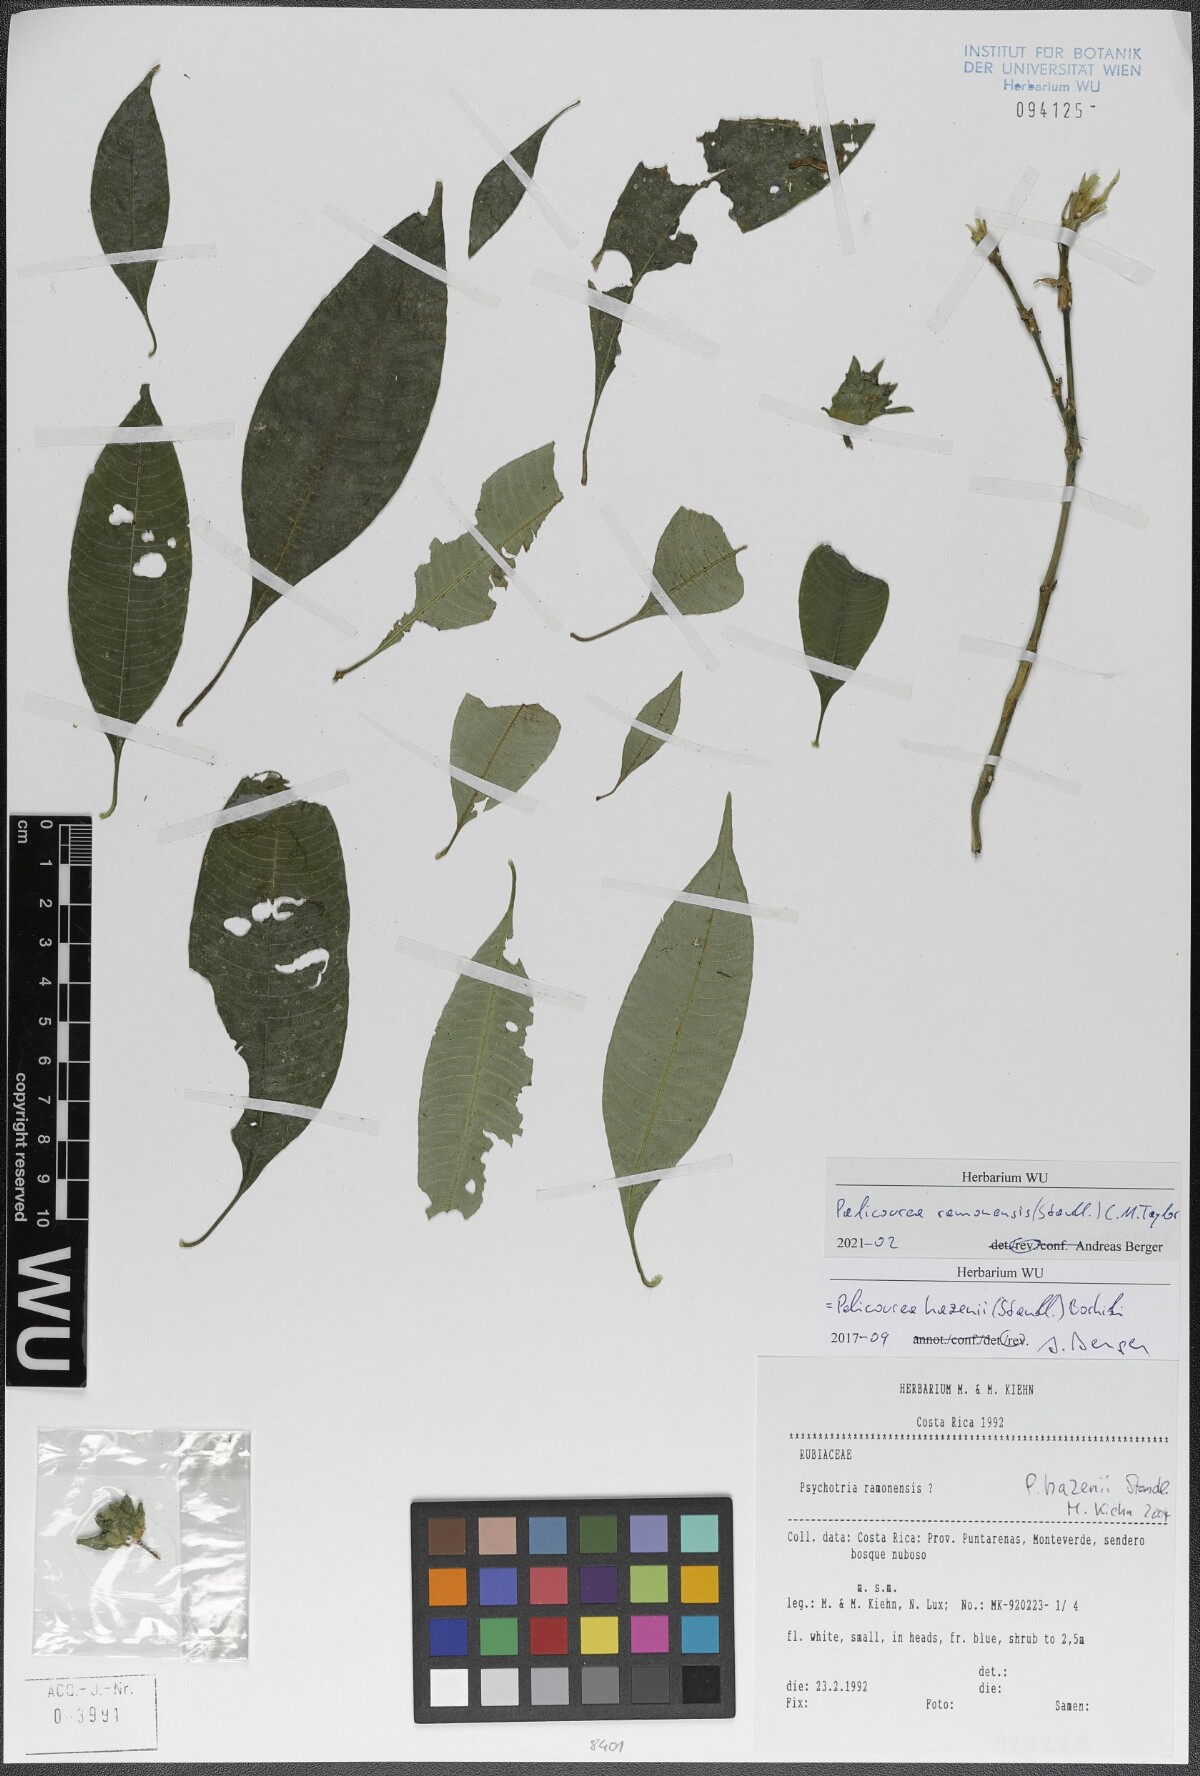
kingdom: Plantae
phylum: Tracheophyta
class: Magnoliopsida
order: Gentianales
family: Rubiaceae
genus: Palicourea
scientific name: Palicourea ramonensis
